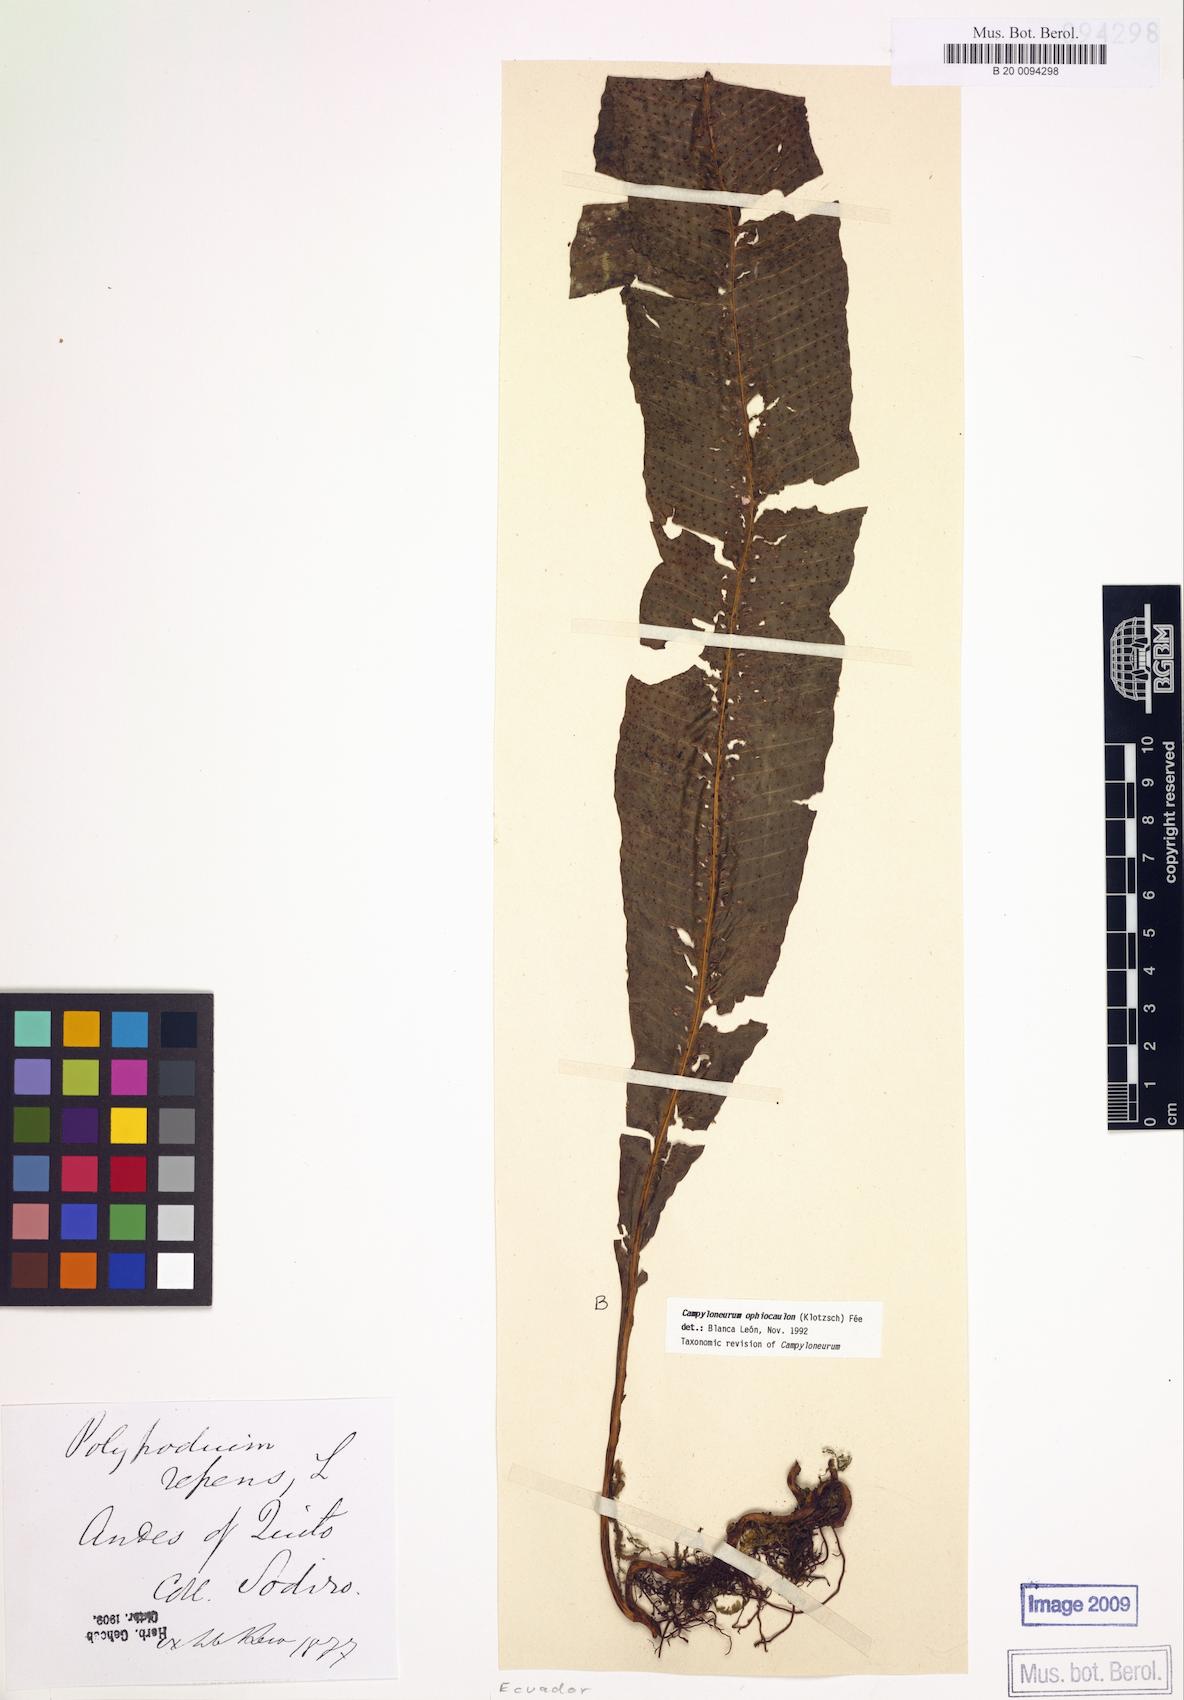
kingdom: Plantae
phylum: Tracheophyta
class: Polypodiopsida
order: Polypodiales
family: Polypodiaceae
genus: Campyloneurum
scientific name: Campyloneurum ophiocaulon
